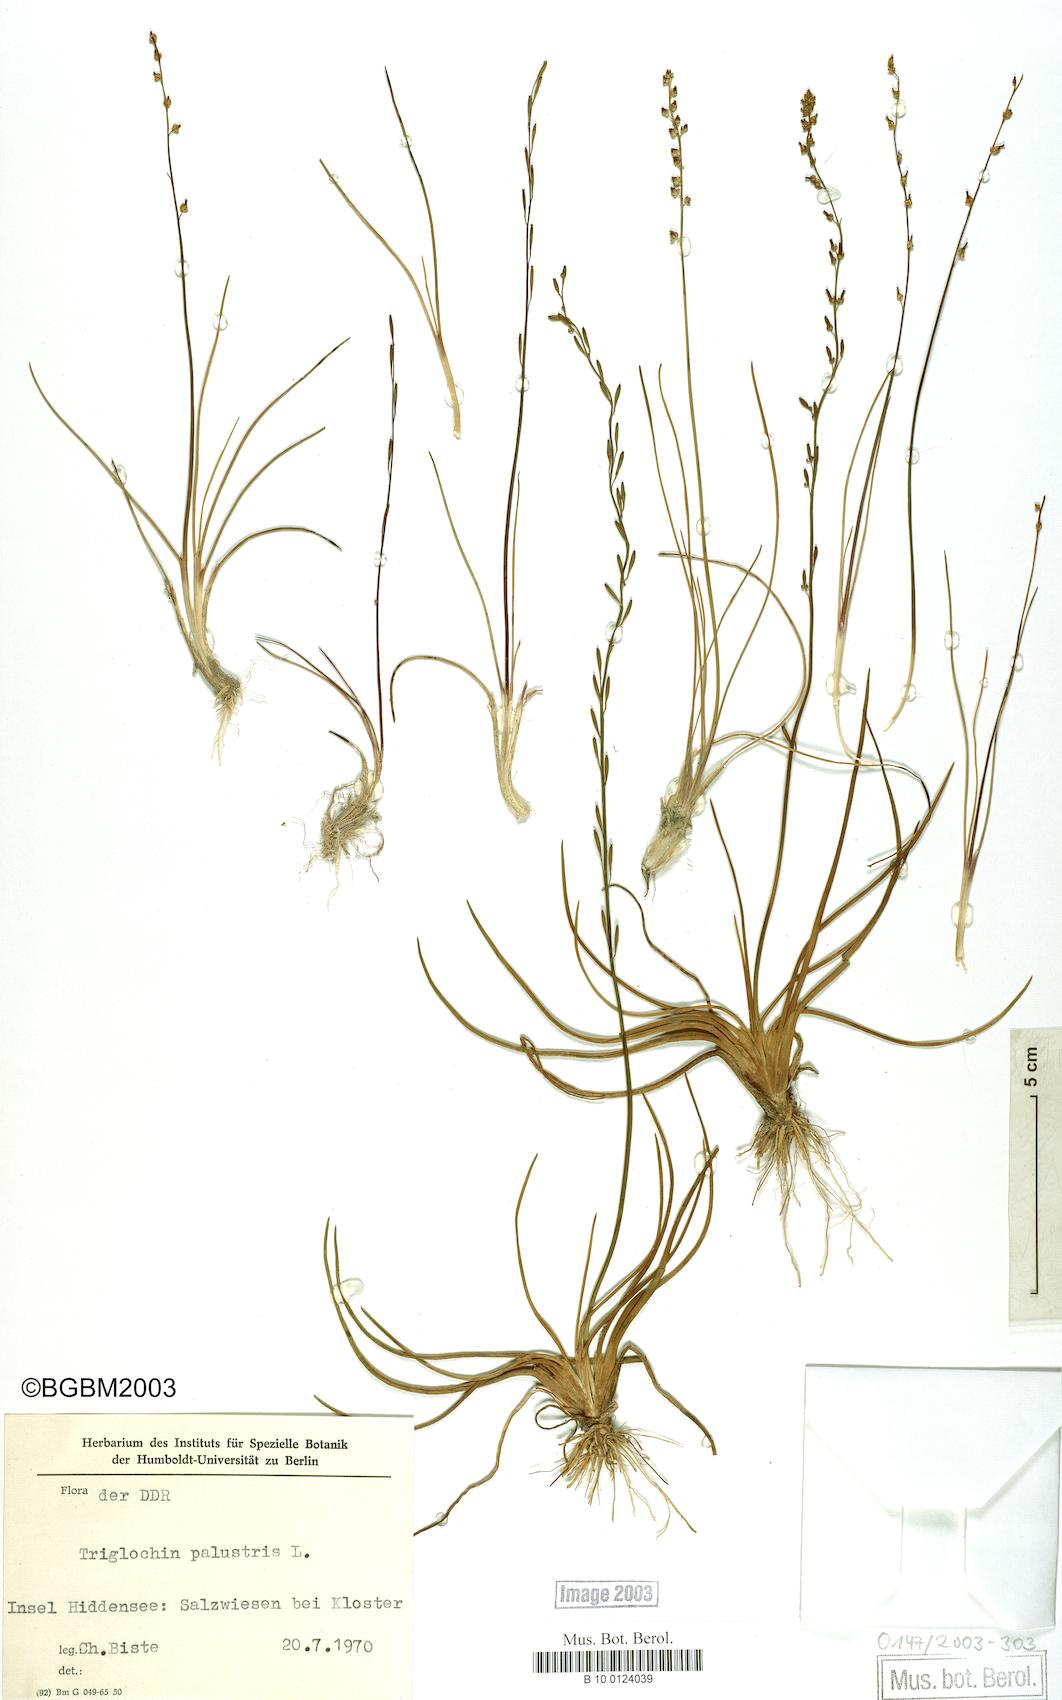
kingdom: Plantae
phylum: Tracheophyta
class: Liliopsida
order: Alismatales
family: Juncaginaceae
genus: Triglochin
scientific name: Triglochin palustris
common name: Marsh arrowgrass
